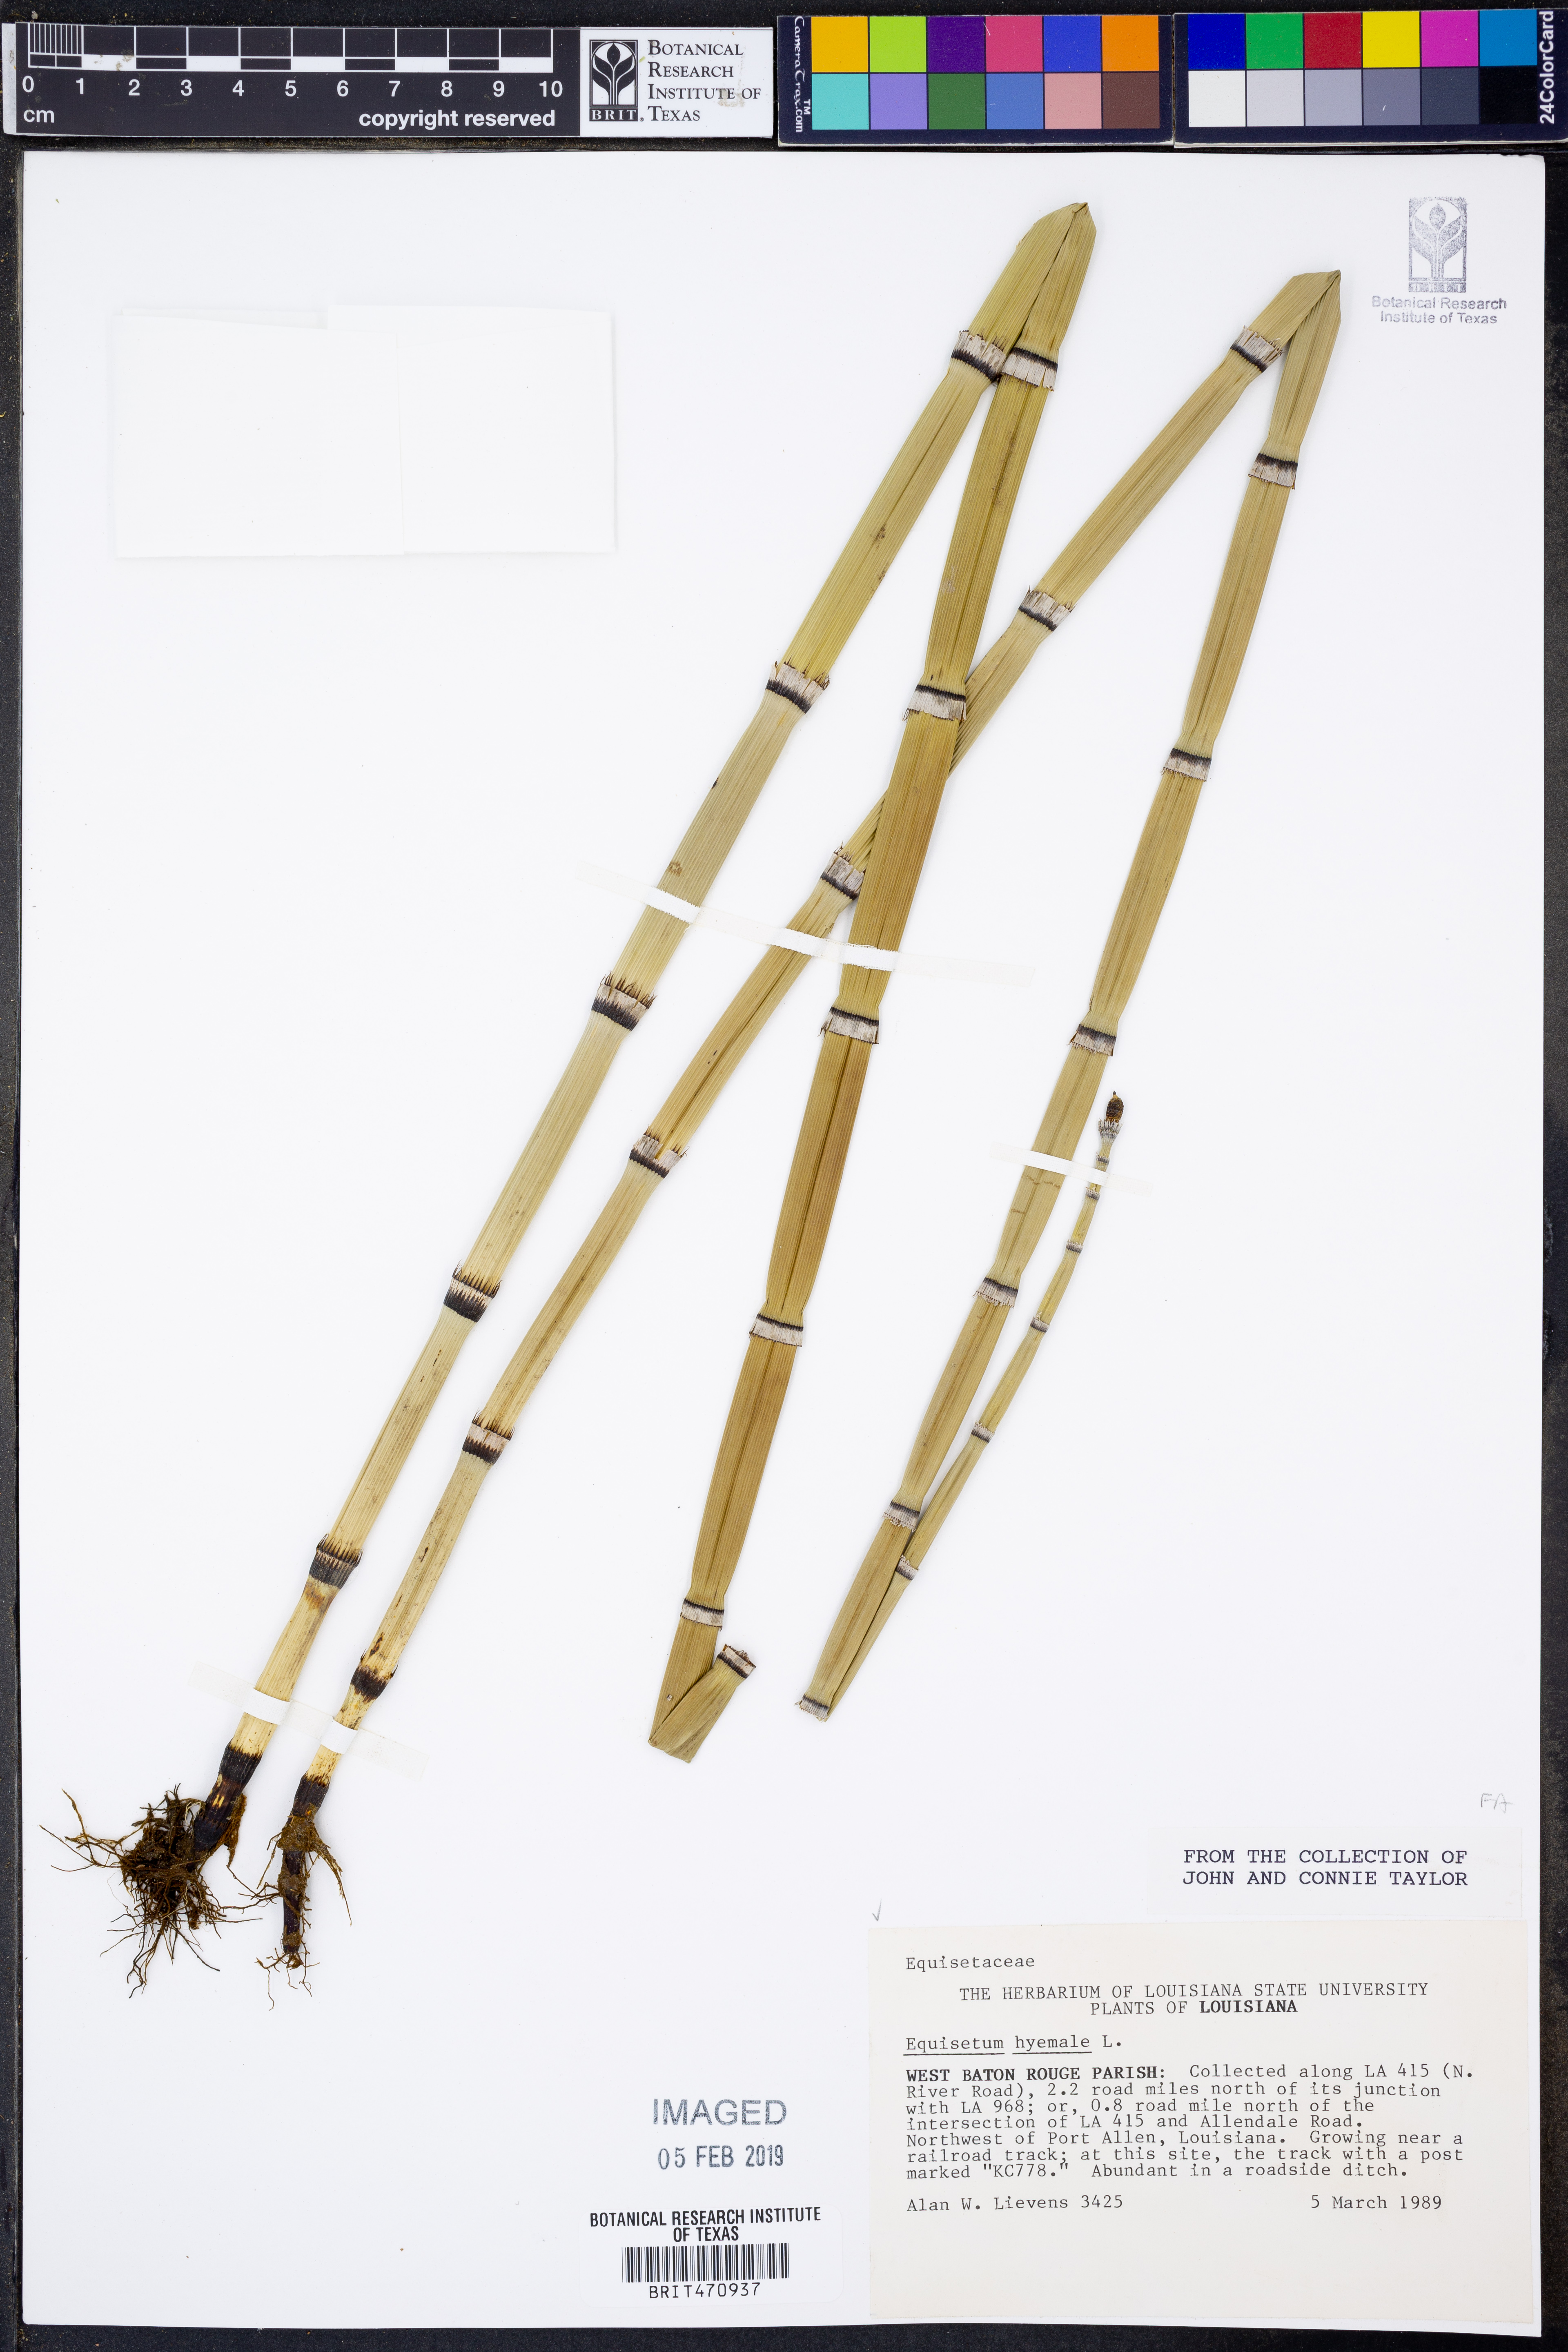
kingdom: Plantae
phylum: Tracheophyta
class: Polypodiopsida
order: Equisetales
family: Equisetaceae
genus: Equisetum
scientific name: Equisetum hyemale
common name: Rough horsetail
